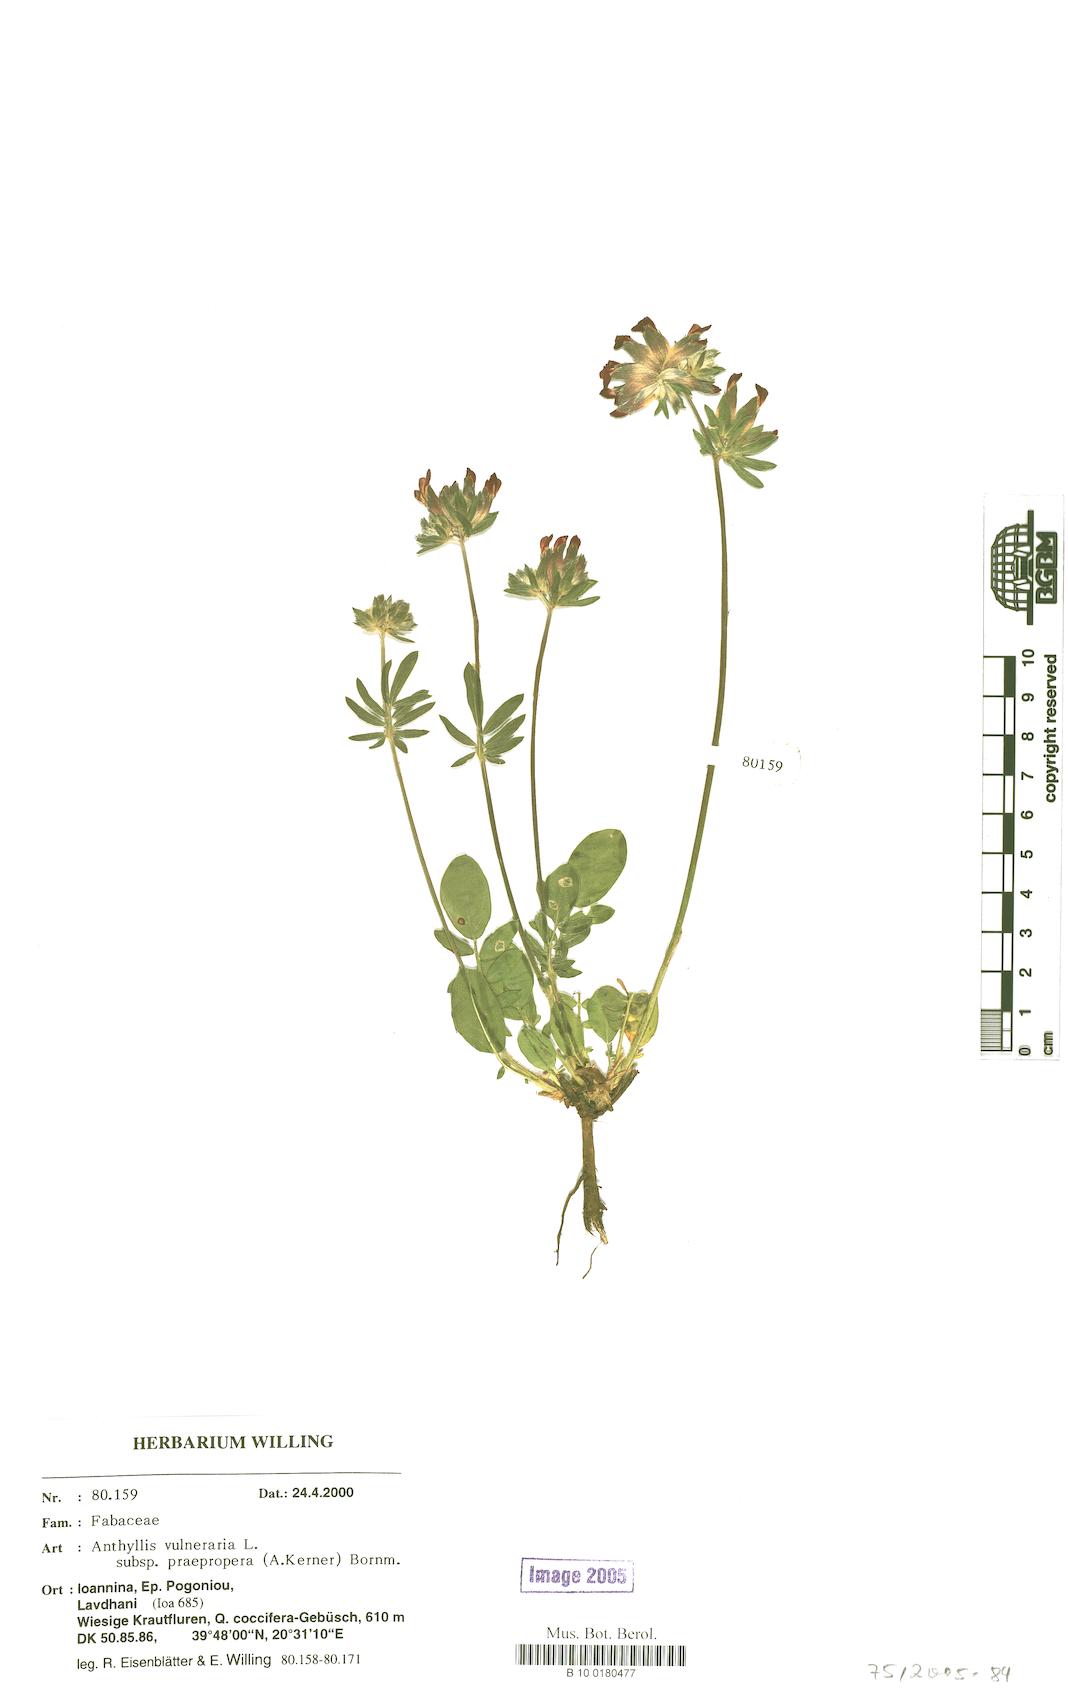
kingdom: Plantae
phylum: Tracheophyta
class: Magnoliopsida
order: Fabales
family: Fabaceae
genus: Anthyllis
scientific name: Anthyllis vulneraria
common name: Kidney vetch
